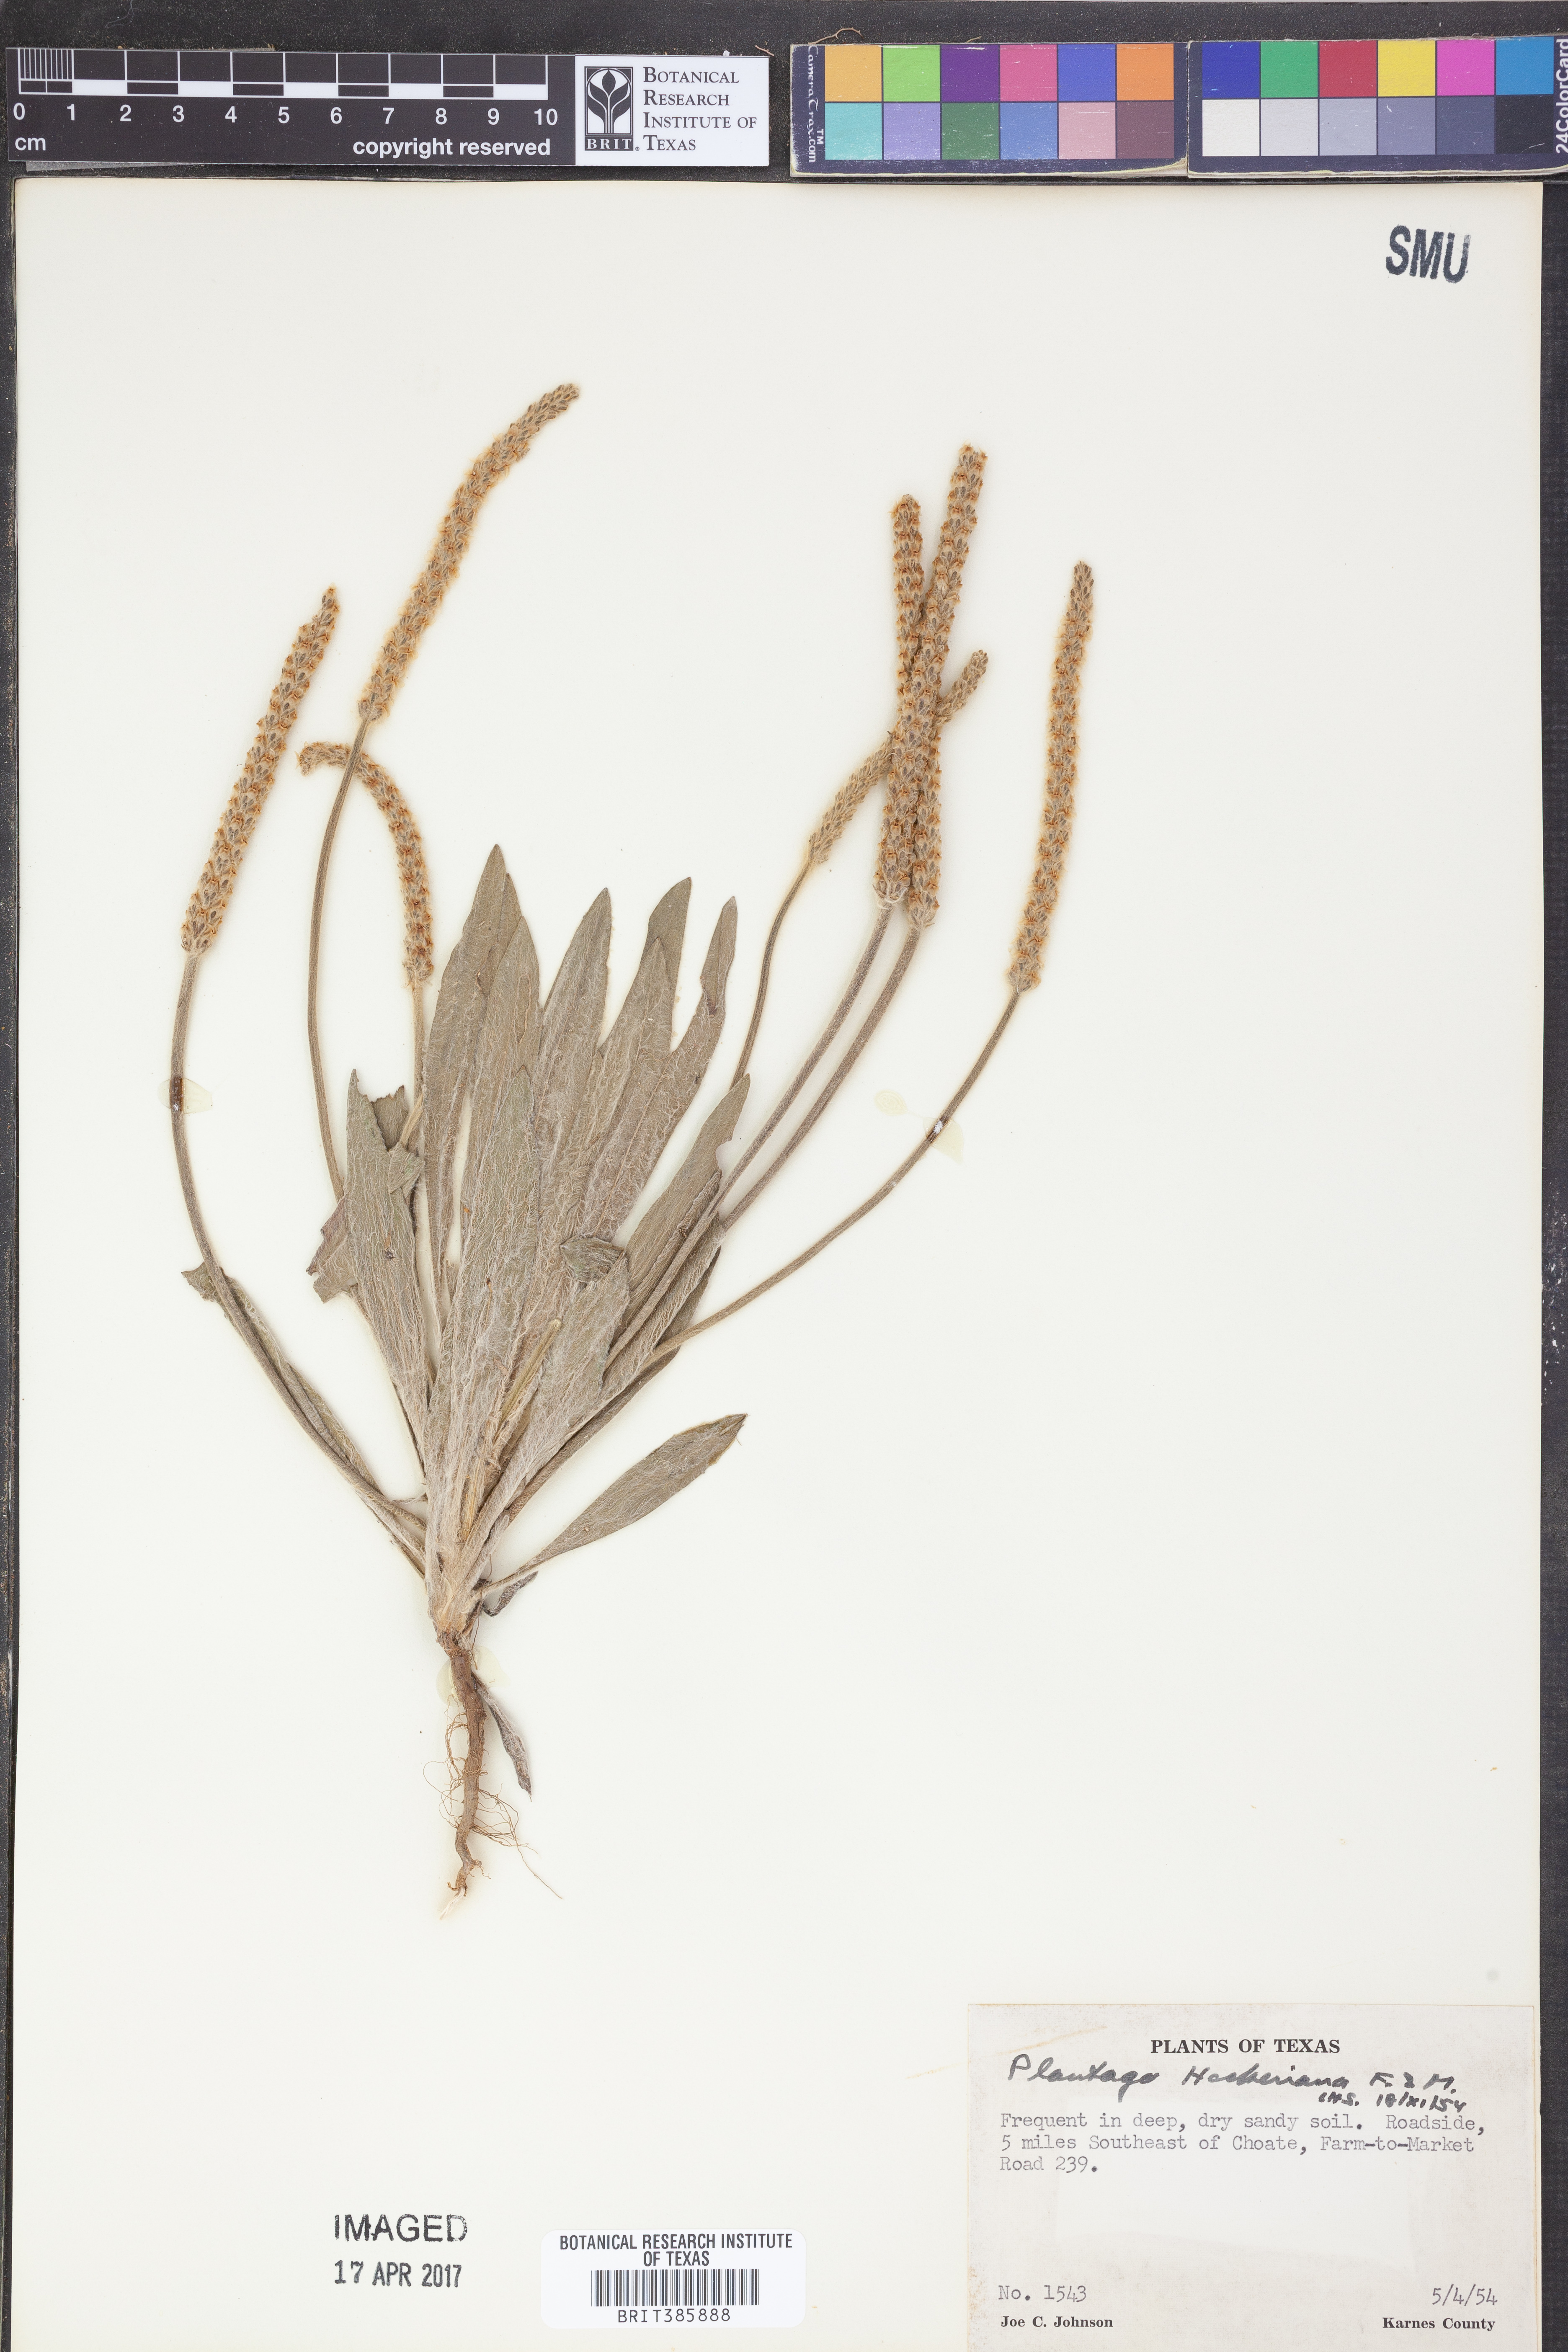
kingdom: Plantae
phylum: Tracheophyta
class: Magnoliopsida
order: Lamiales
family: Plantaginaceae
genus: Plantago
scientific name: Plantago hookeriana
